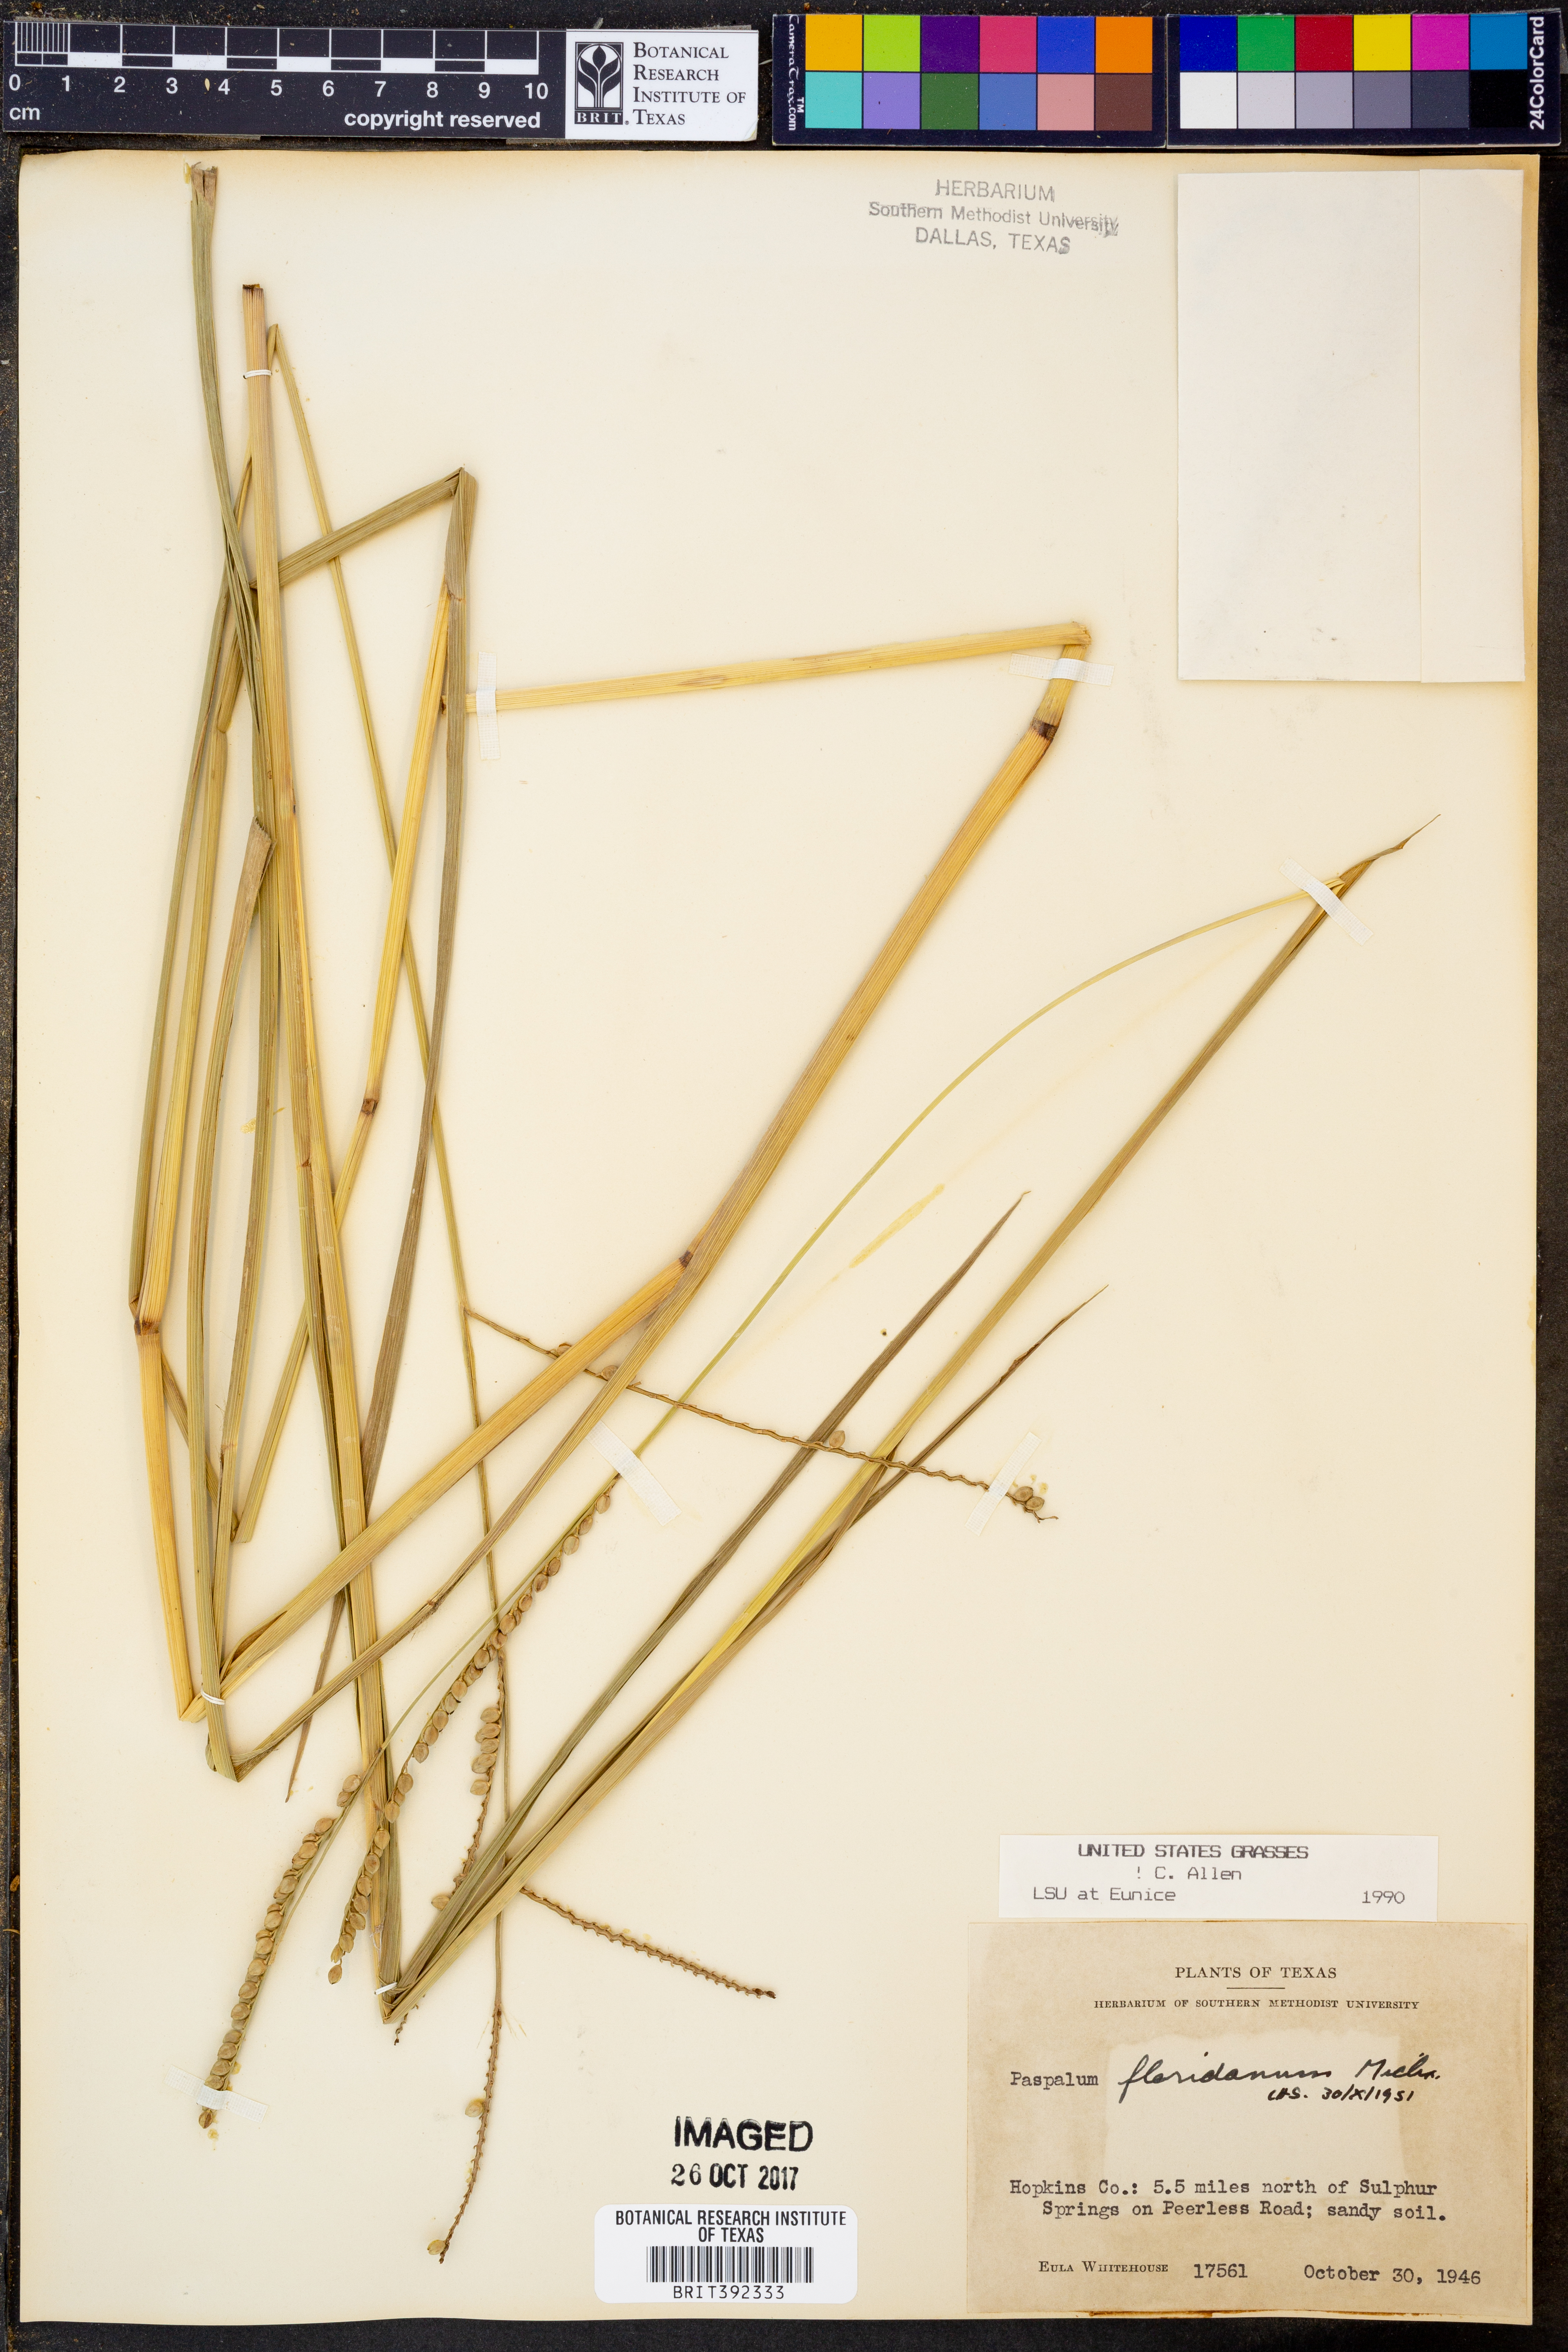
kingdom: Plantae
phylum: Tracheophyta
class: Liliopsida
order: Poales
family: Poaceae
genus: Paspalum
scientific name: Paspalum floridanum
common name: Florida paspalum
